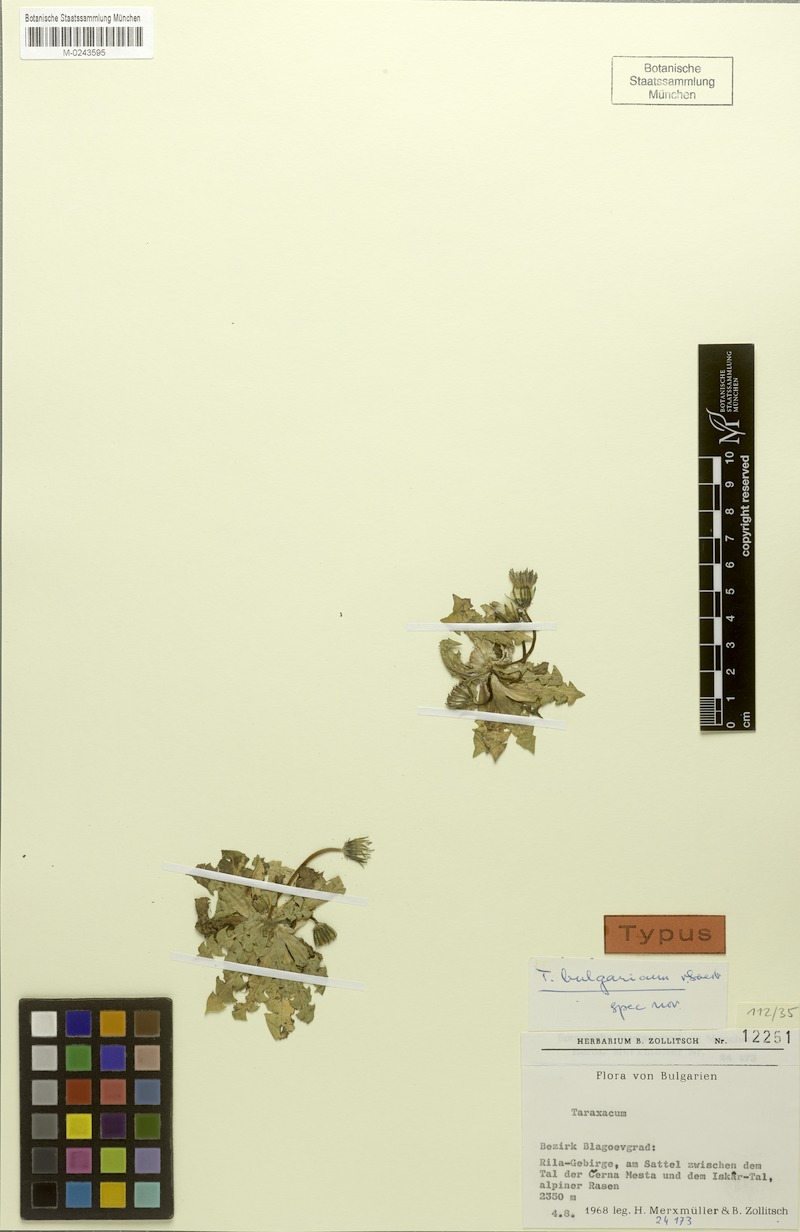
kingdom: Plantae
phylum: Tracheophyta
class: Magnoliopsida
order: Asterales
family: Asteraceae
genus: Taraxacum
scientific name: Taraxacum bulgaricum
